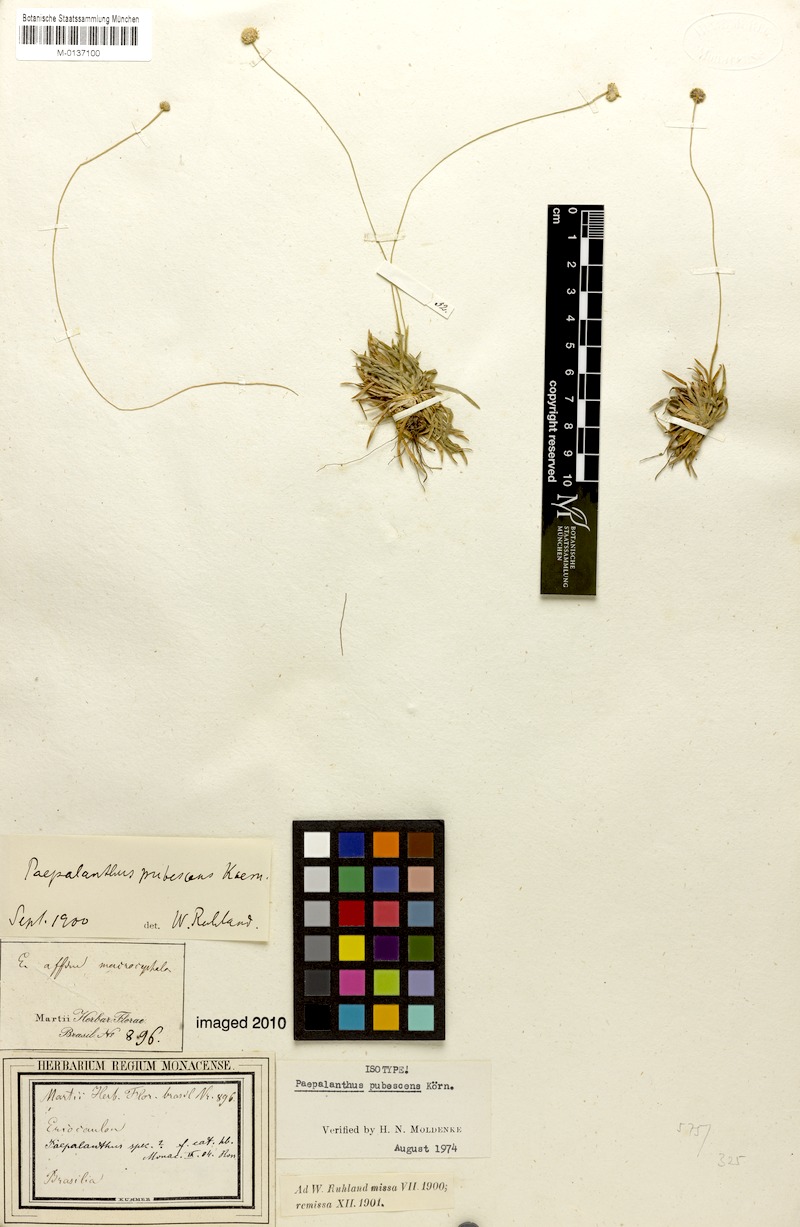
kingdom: Plantae
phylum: Tracheophyta
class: Liliopsida
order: Poales
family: Eriocaulaceae
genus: Paepalanthus
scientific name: Paepalanthus pubescens
